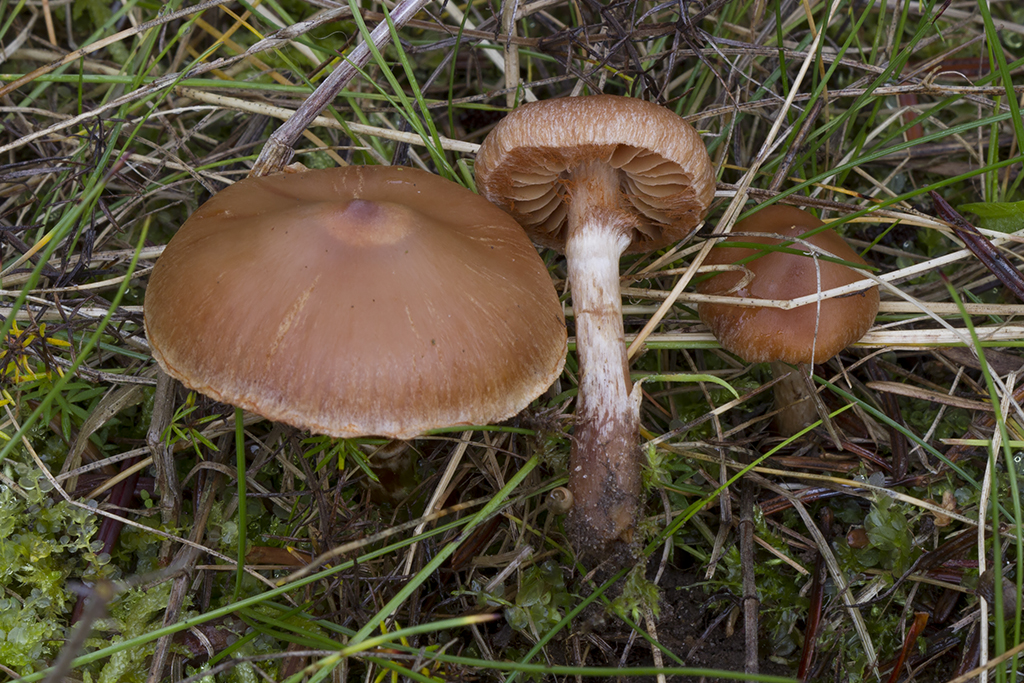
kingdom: Fungi
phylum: Basidiomycota
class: Agaricomycetes
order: Agaricales
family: Cortinariaceae
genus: Cortinarius
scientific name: Cortinarius hinnuleus
